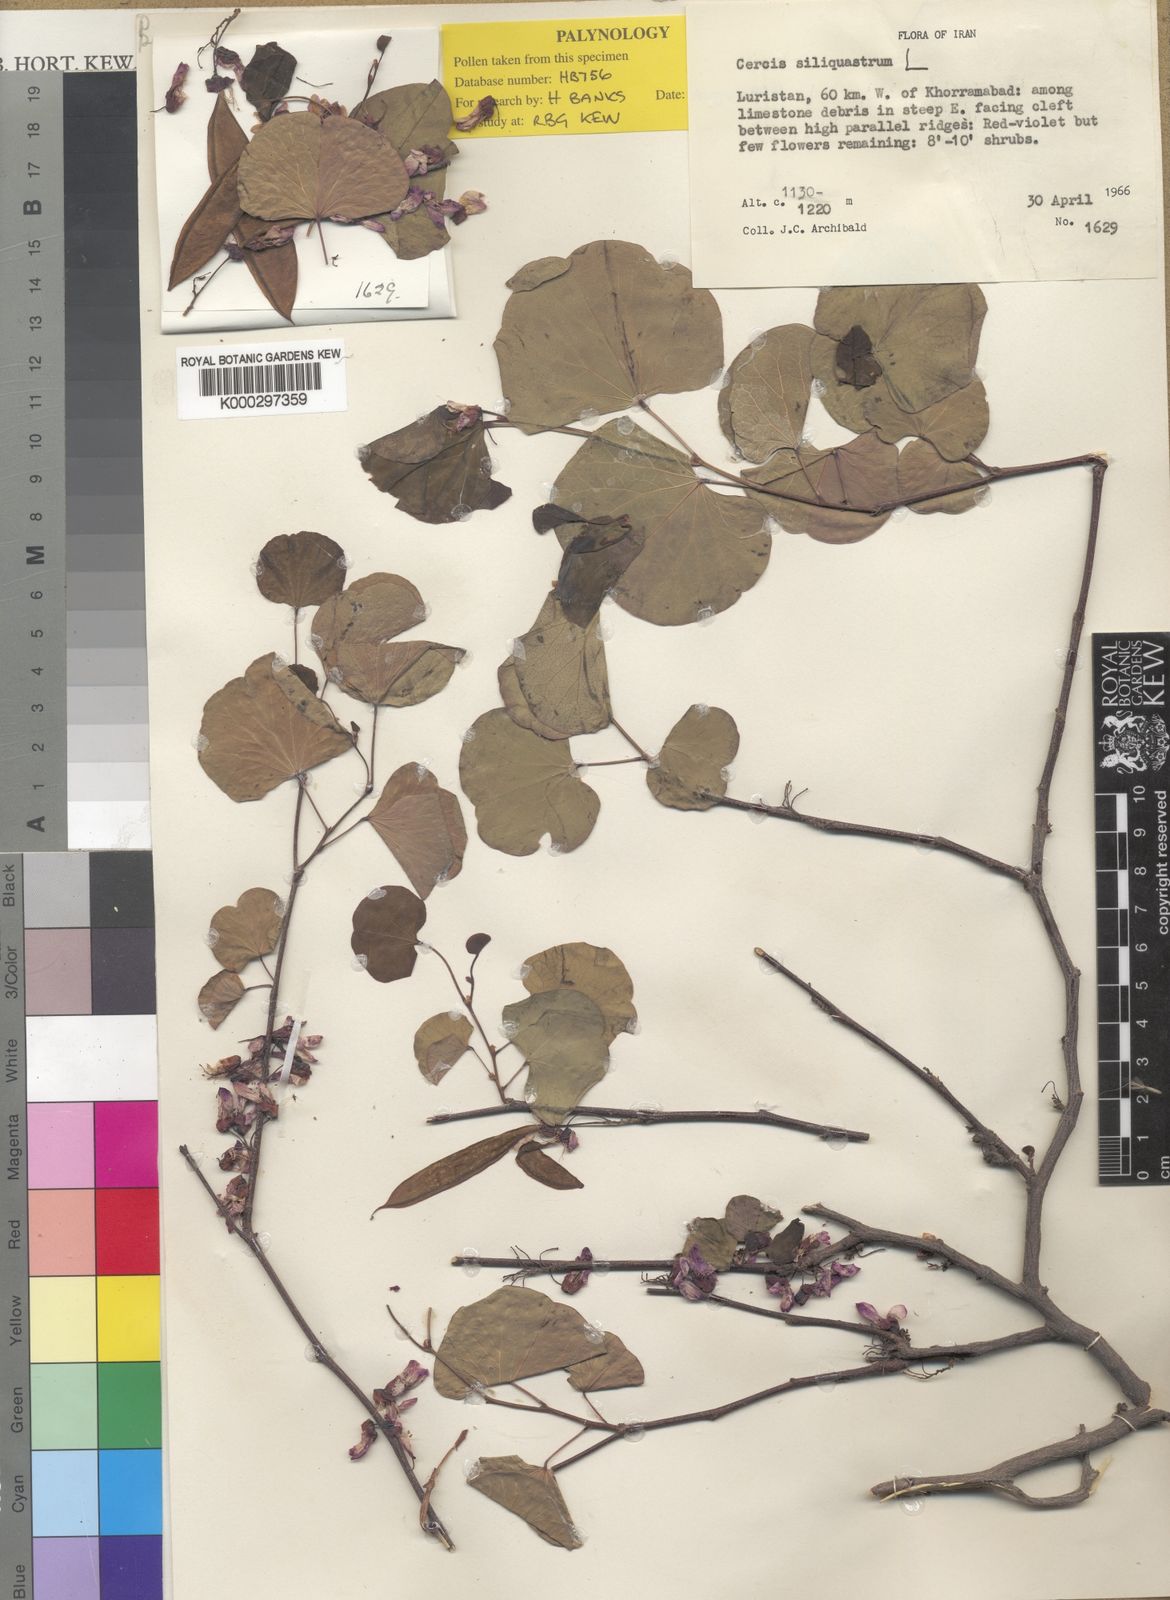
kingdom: Plantae
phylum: Tracheophyta
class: Magnoliopsida
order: Fabales
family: Fabaceae
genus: Cercis
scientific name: Cercis
